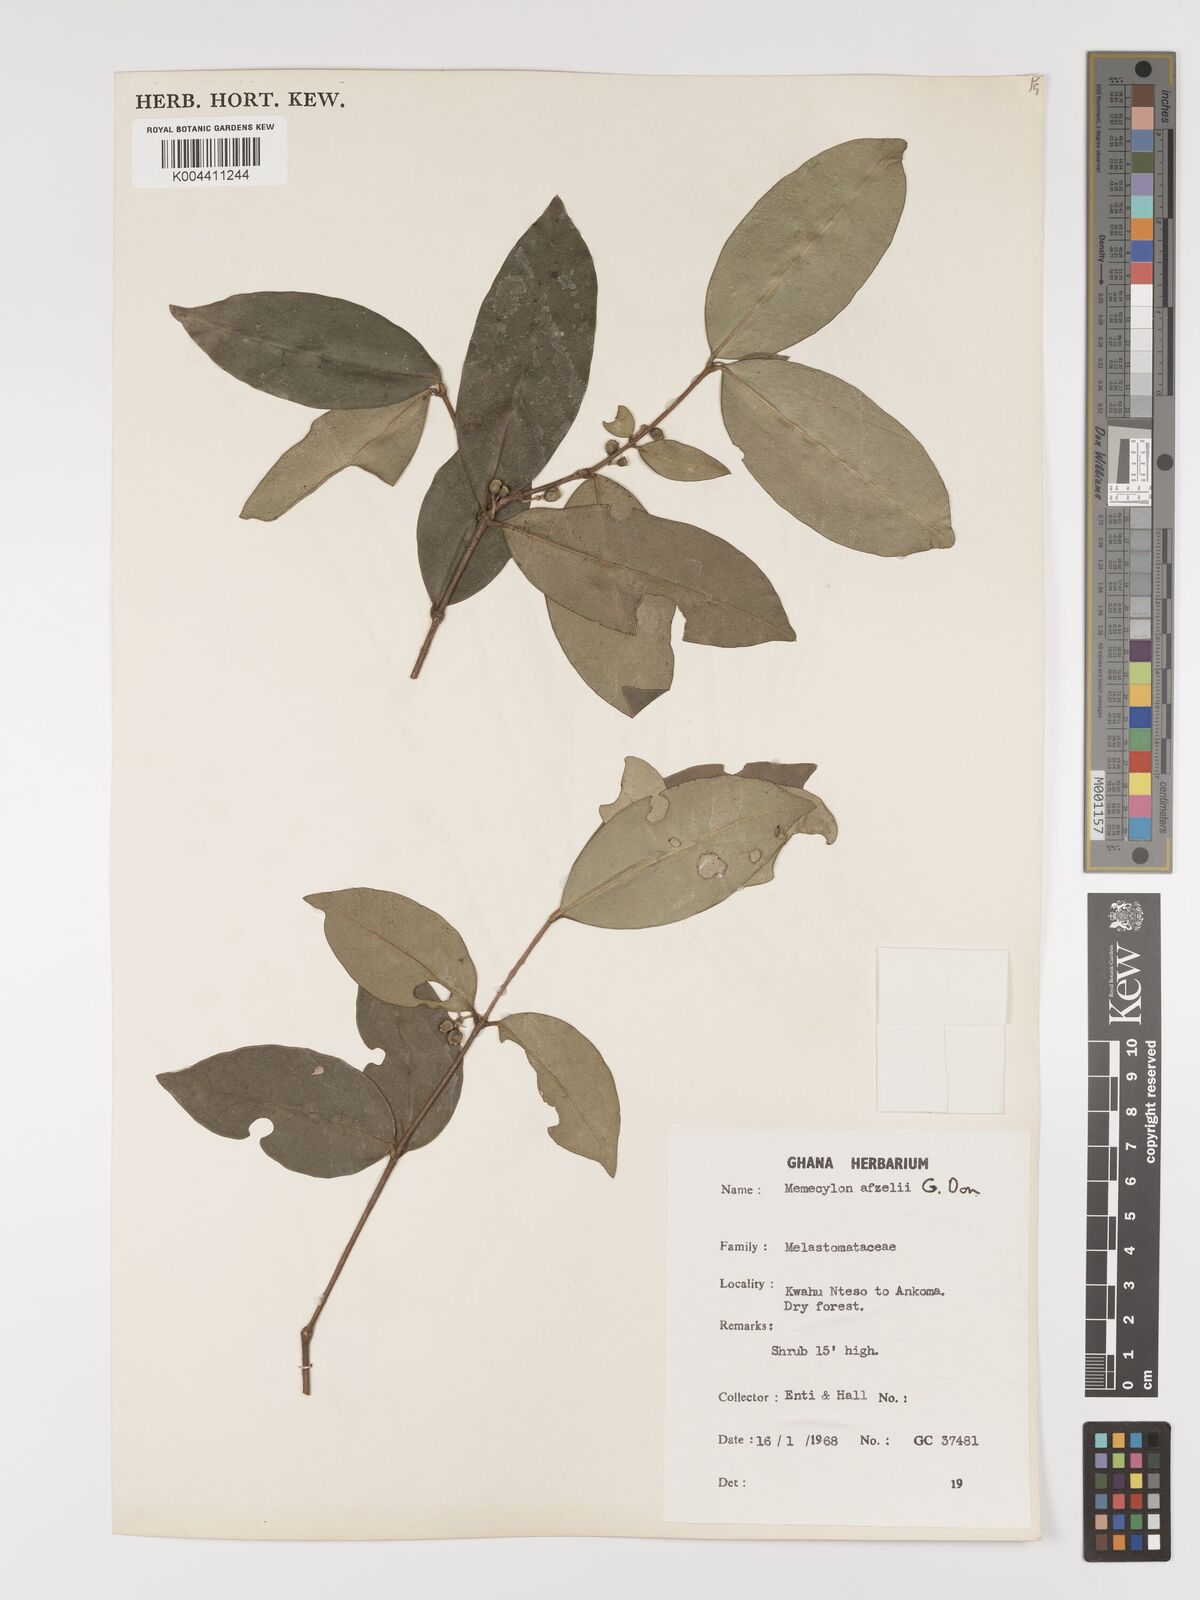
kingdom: Plantae
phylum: Tracheophyta
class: Magnoliopsida
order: Myrtales
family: Melastomataceae
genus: Memecylon
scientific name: Memecylon afzelii
